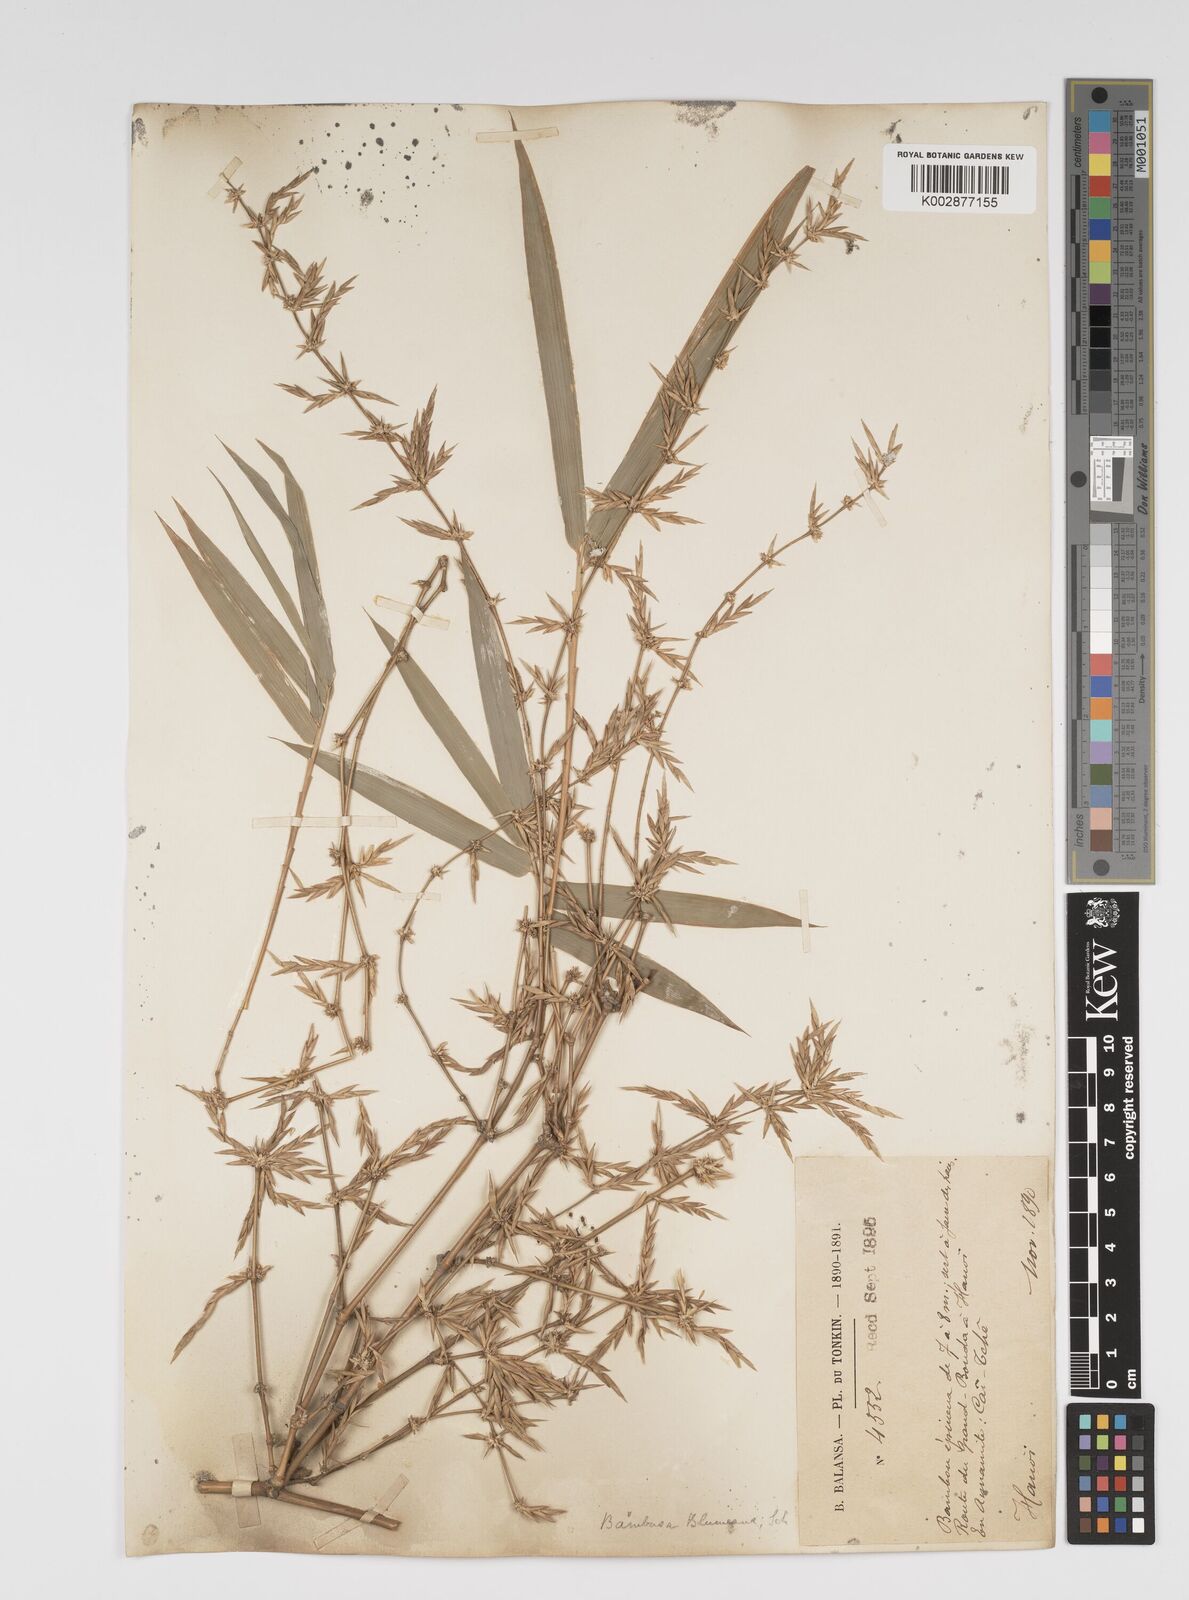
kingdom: Plantae
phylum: Tracheophyta
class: Liliopsida
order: Poales
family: Poaceae
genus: Bambusa
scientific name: Bambusa spinosa
